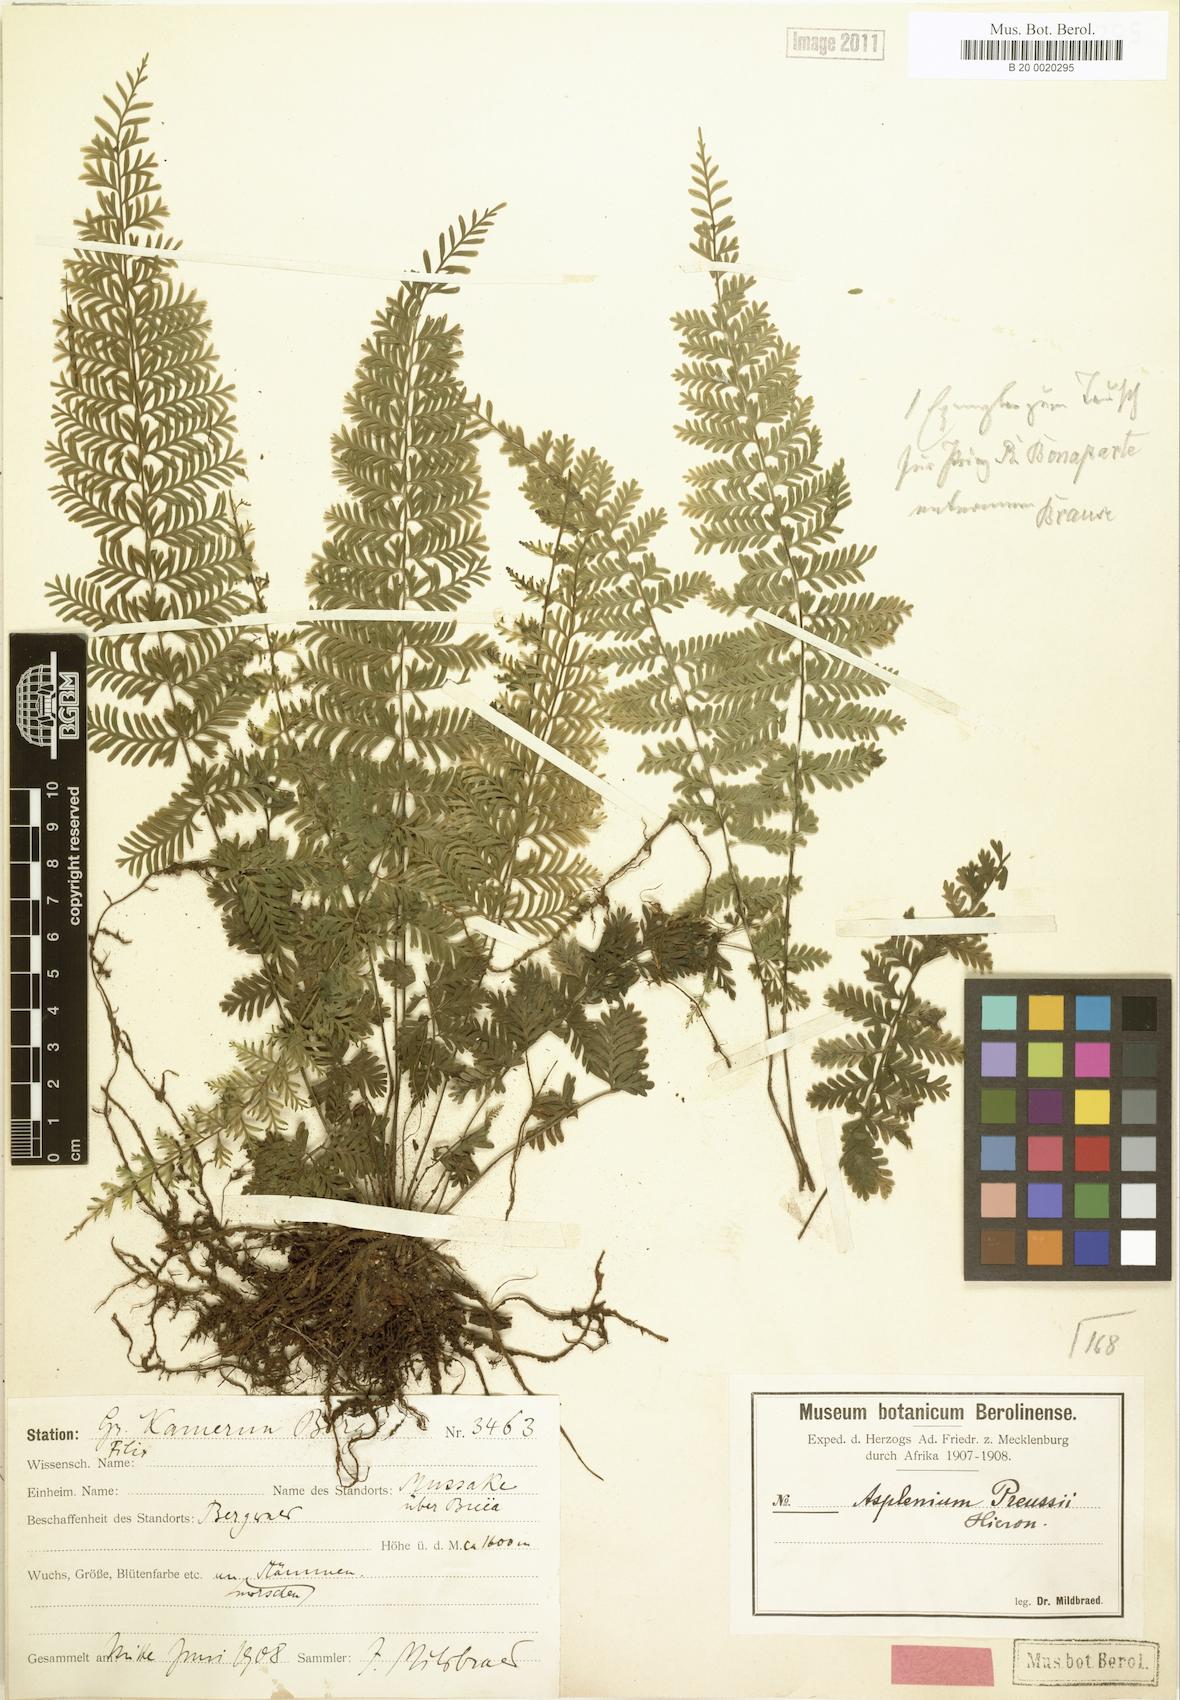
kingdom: Plantae
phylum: Tracheophyta
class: Polypodiopsida
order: Polypodiales
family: Aspleniaceae
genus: Asplenium
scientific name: Asplenium preussii
